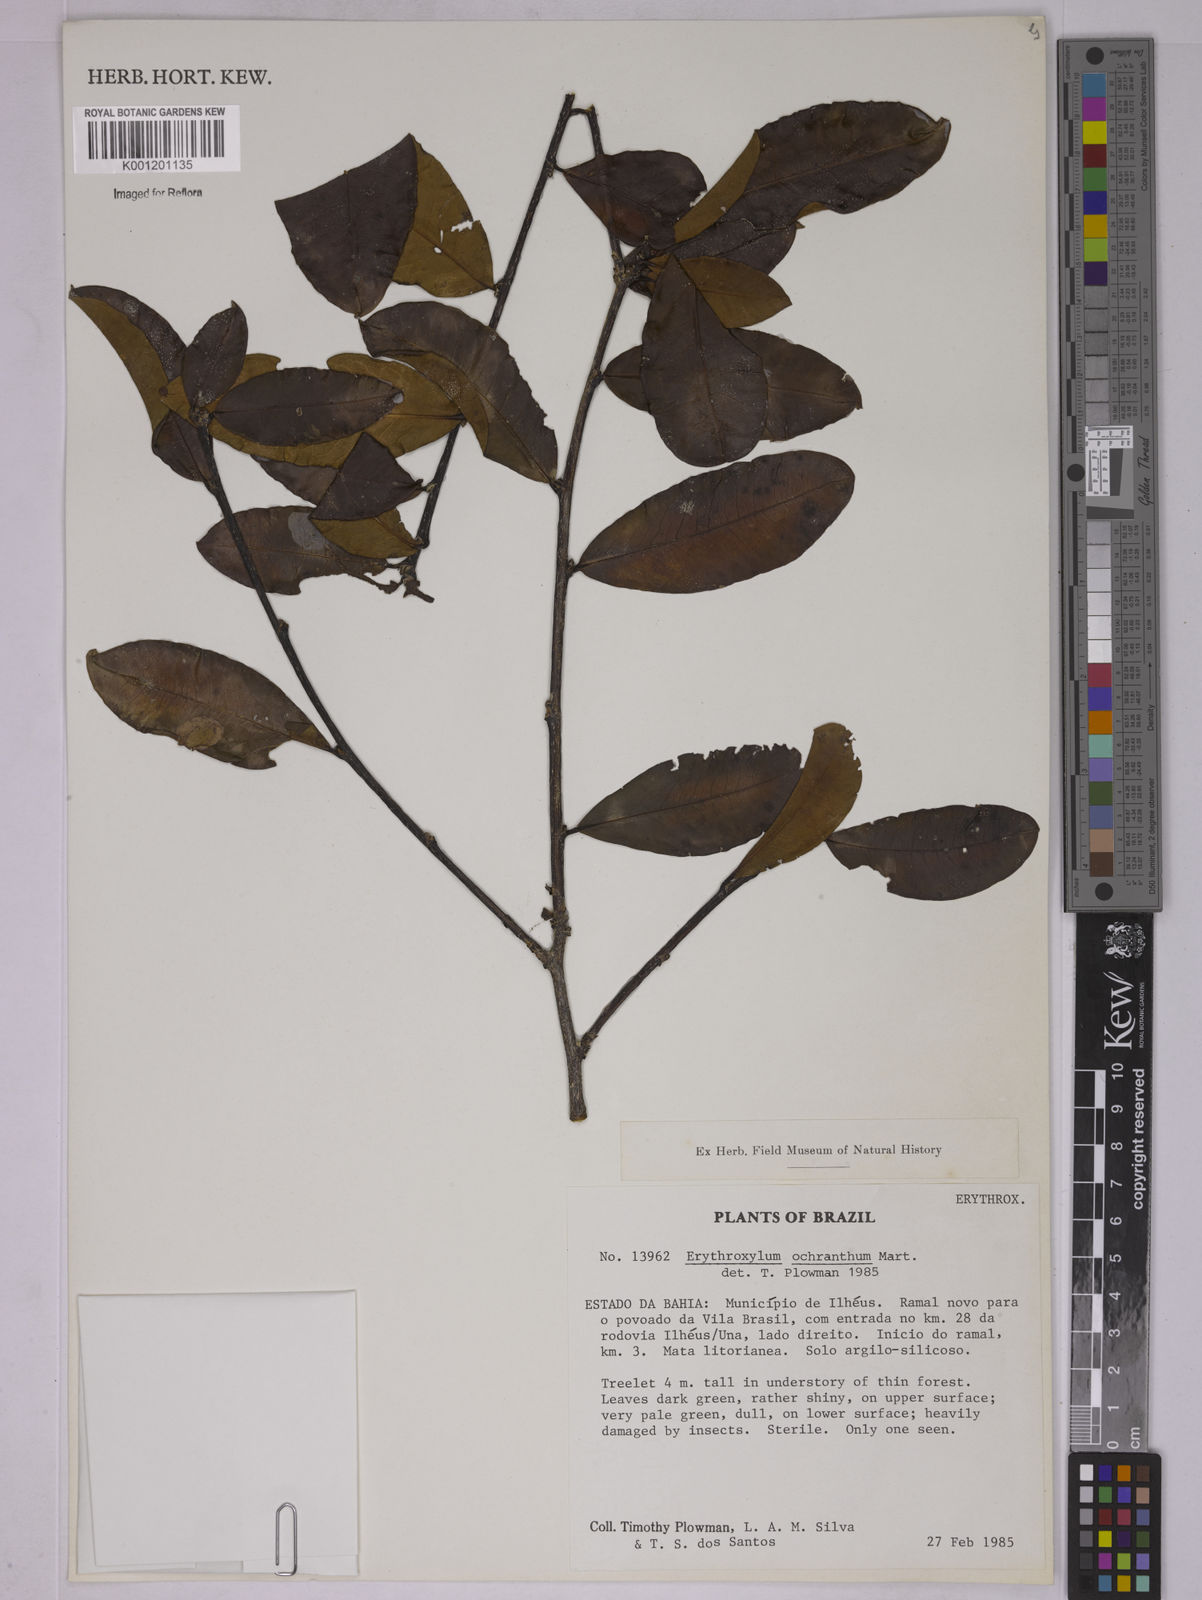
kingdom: Plantae
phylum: Tracheophyta
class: Magnoliopsida
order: Malpighiales
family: Erythroxylaceae
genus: Erythroxylum
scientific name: Erythroxylum ochranthum
